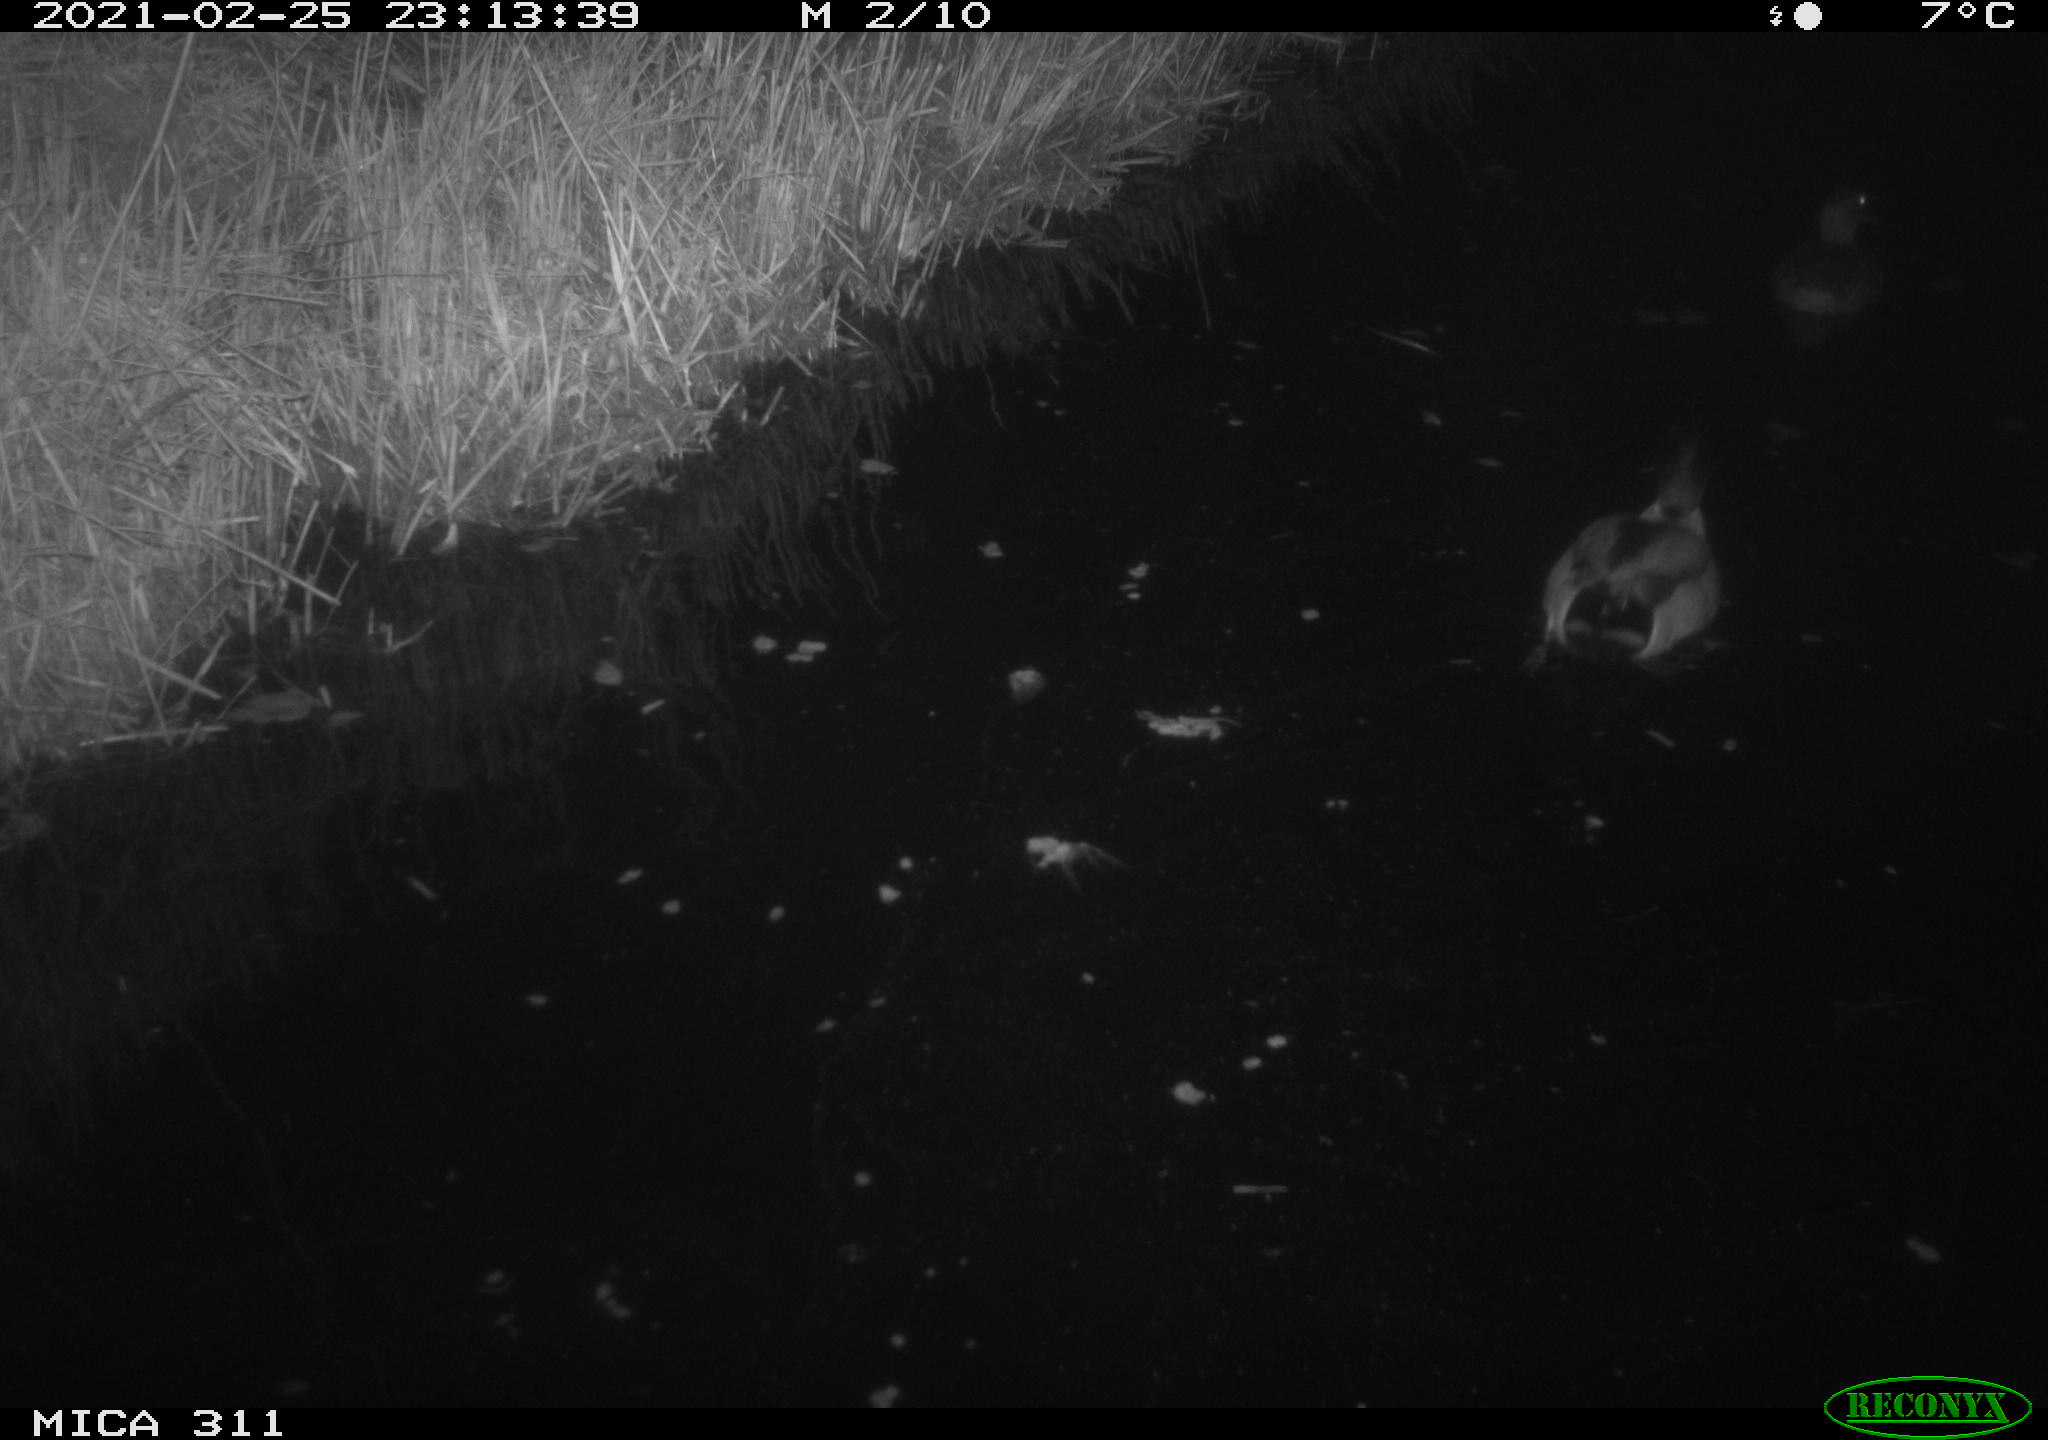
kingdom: Animalia
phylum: Chordata
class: Aves
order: Anseriformes
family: Anatidae
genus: Anas
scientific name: Anas platyrhynchos
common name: Mallard
